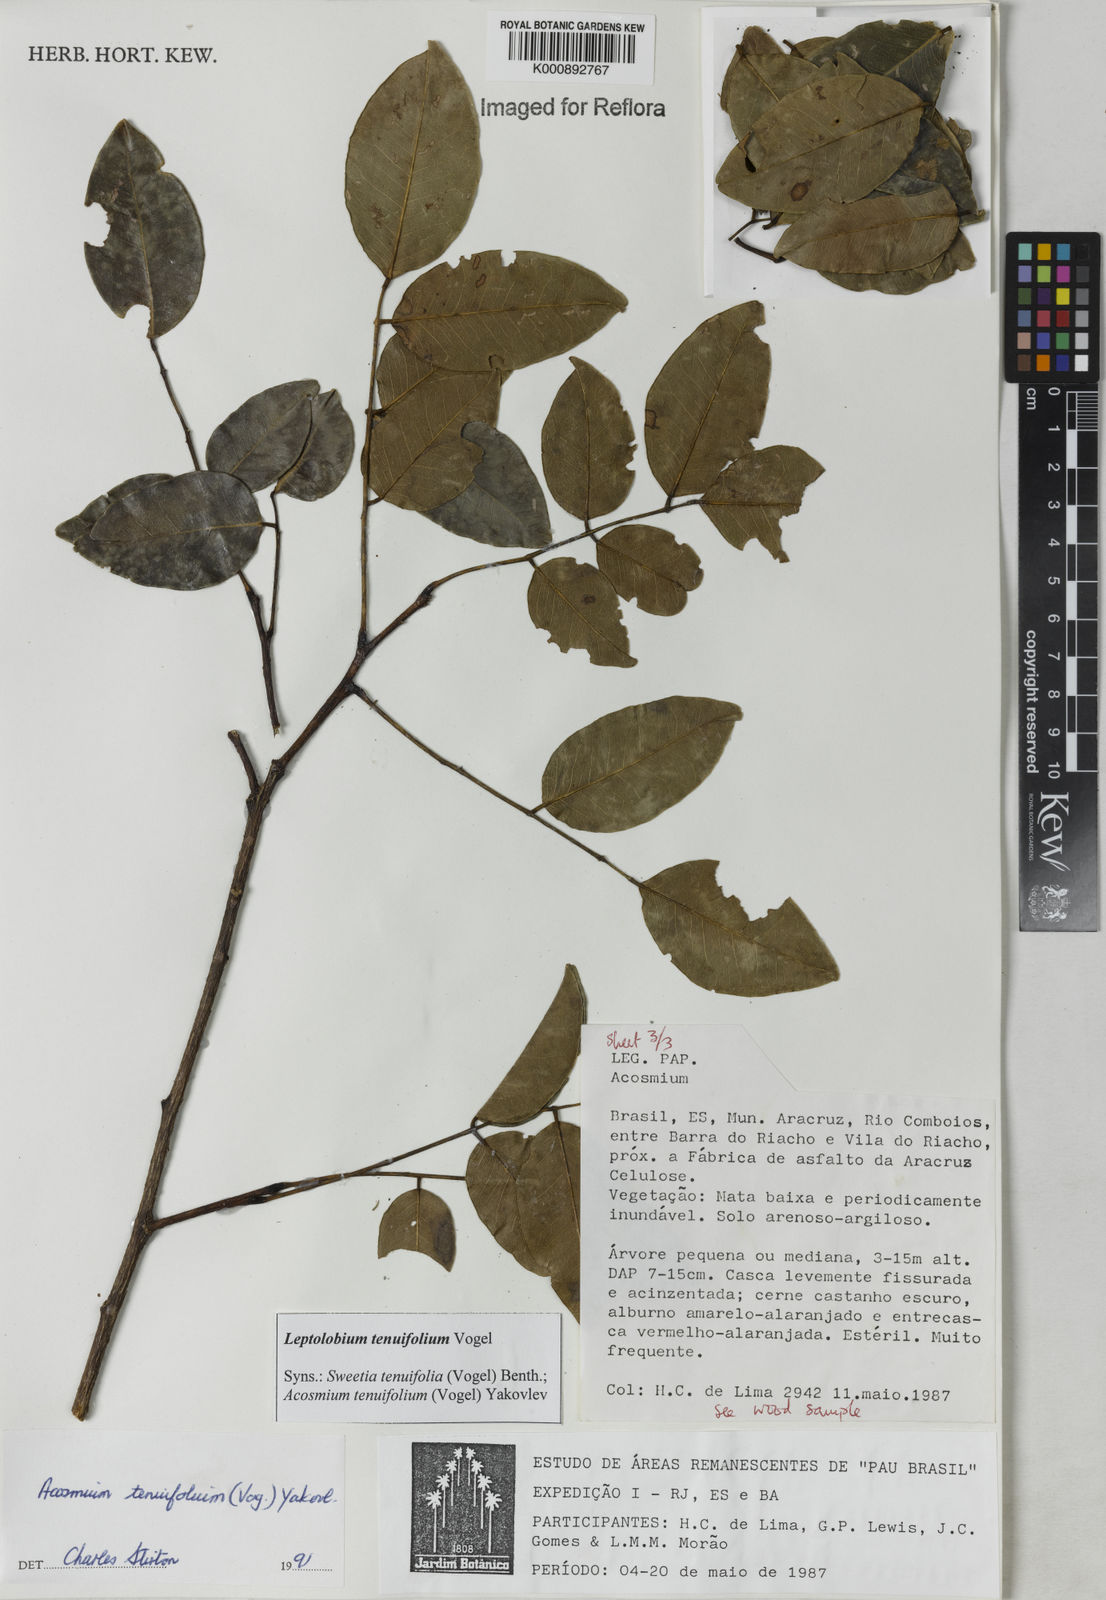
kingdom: Plantae
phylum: Tracheophyta
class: Magnoliopsida
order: Fabales
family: Fabaceae
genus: Leptolobium
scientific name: Leptolobium tenuifolium
